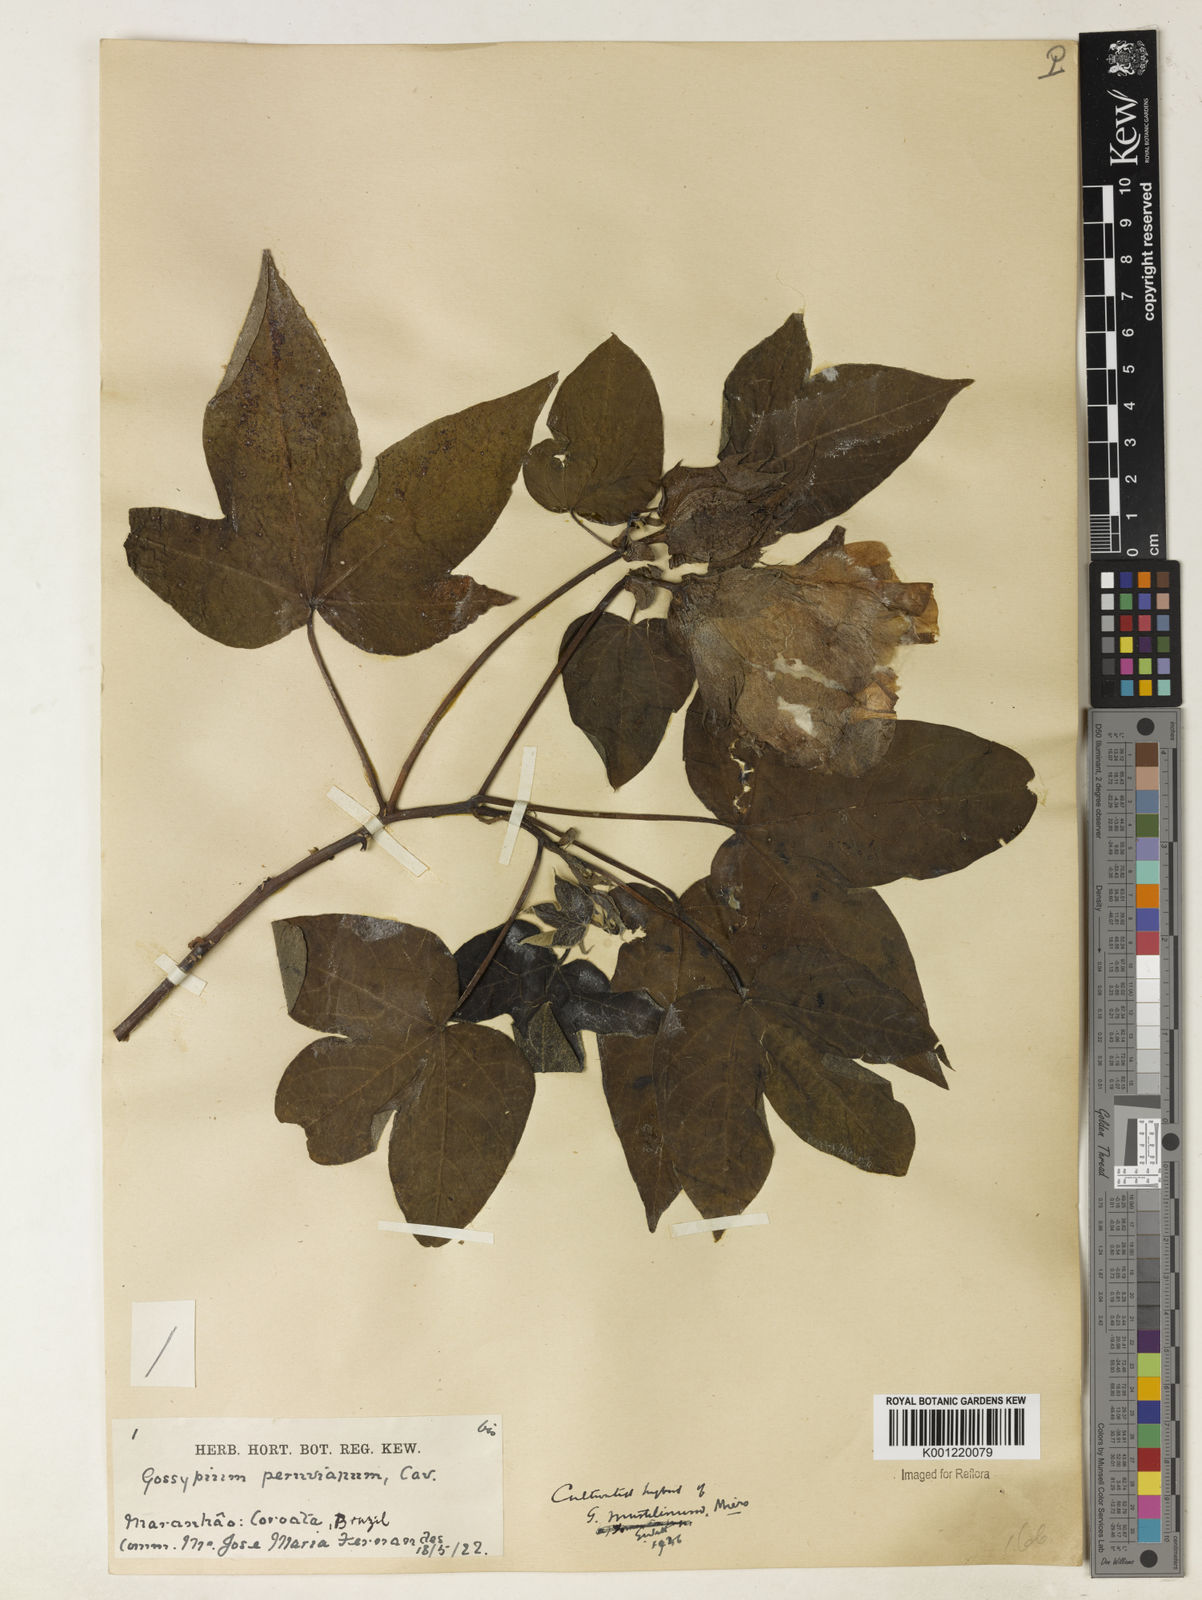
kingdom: Plantae
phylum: Tracheophyta
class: Magnoliopsida
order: Malvales
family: Malvaceae
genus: Gossypium
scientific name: Gossypium
